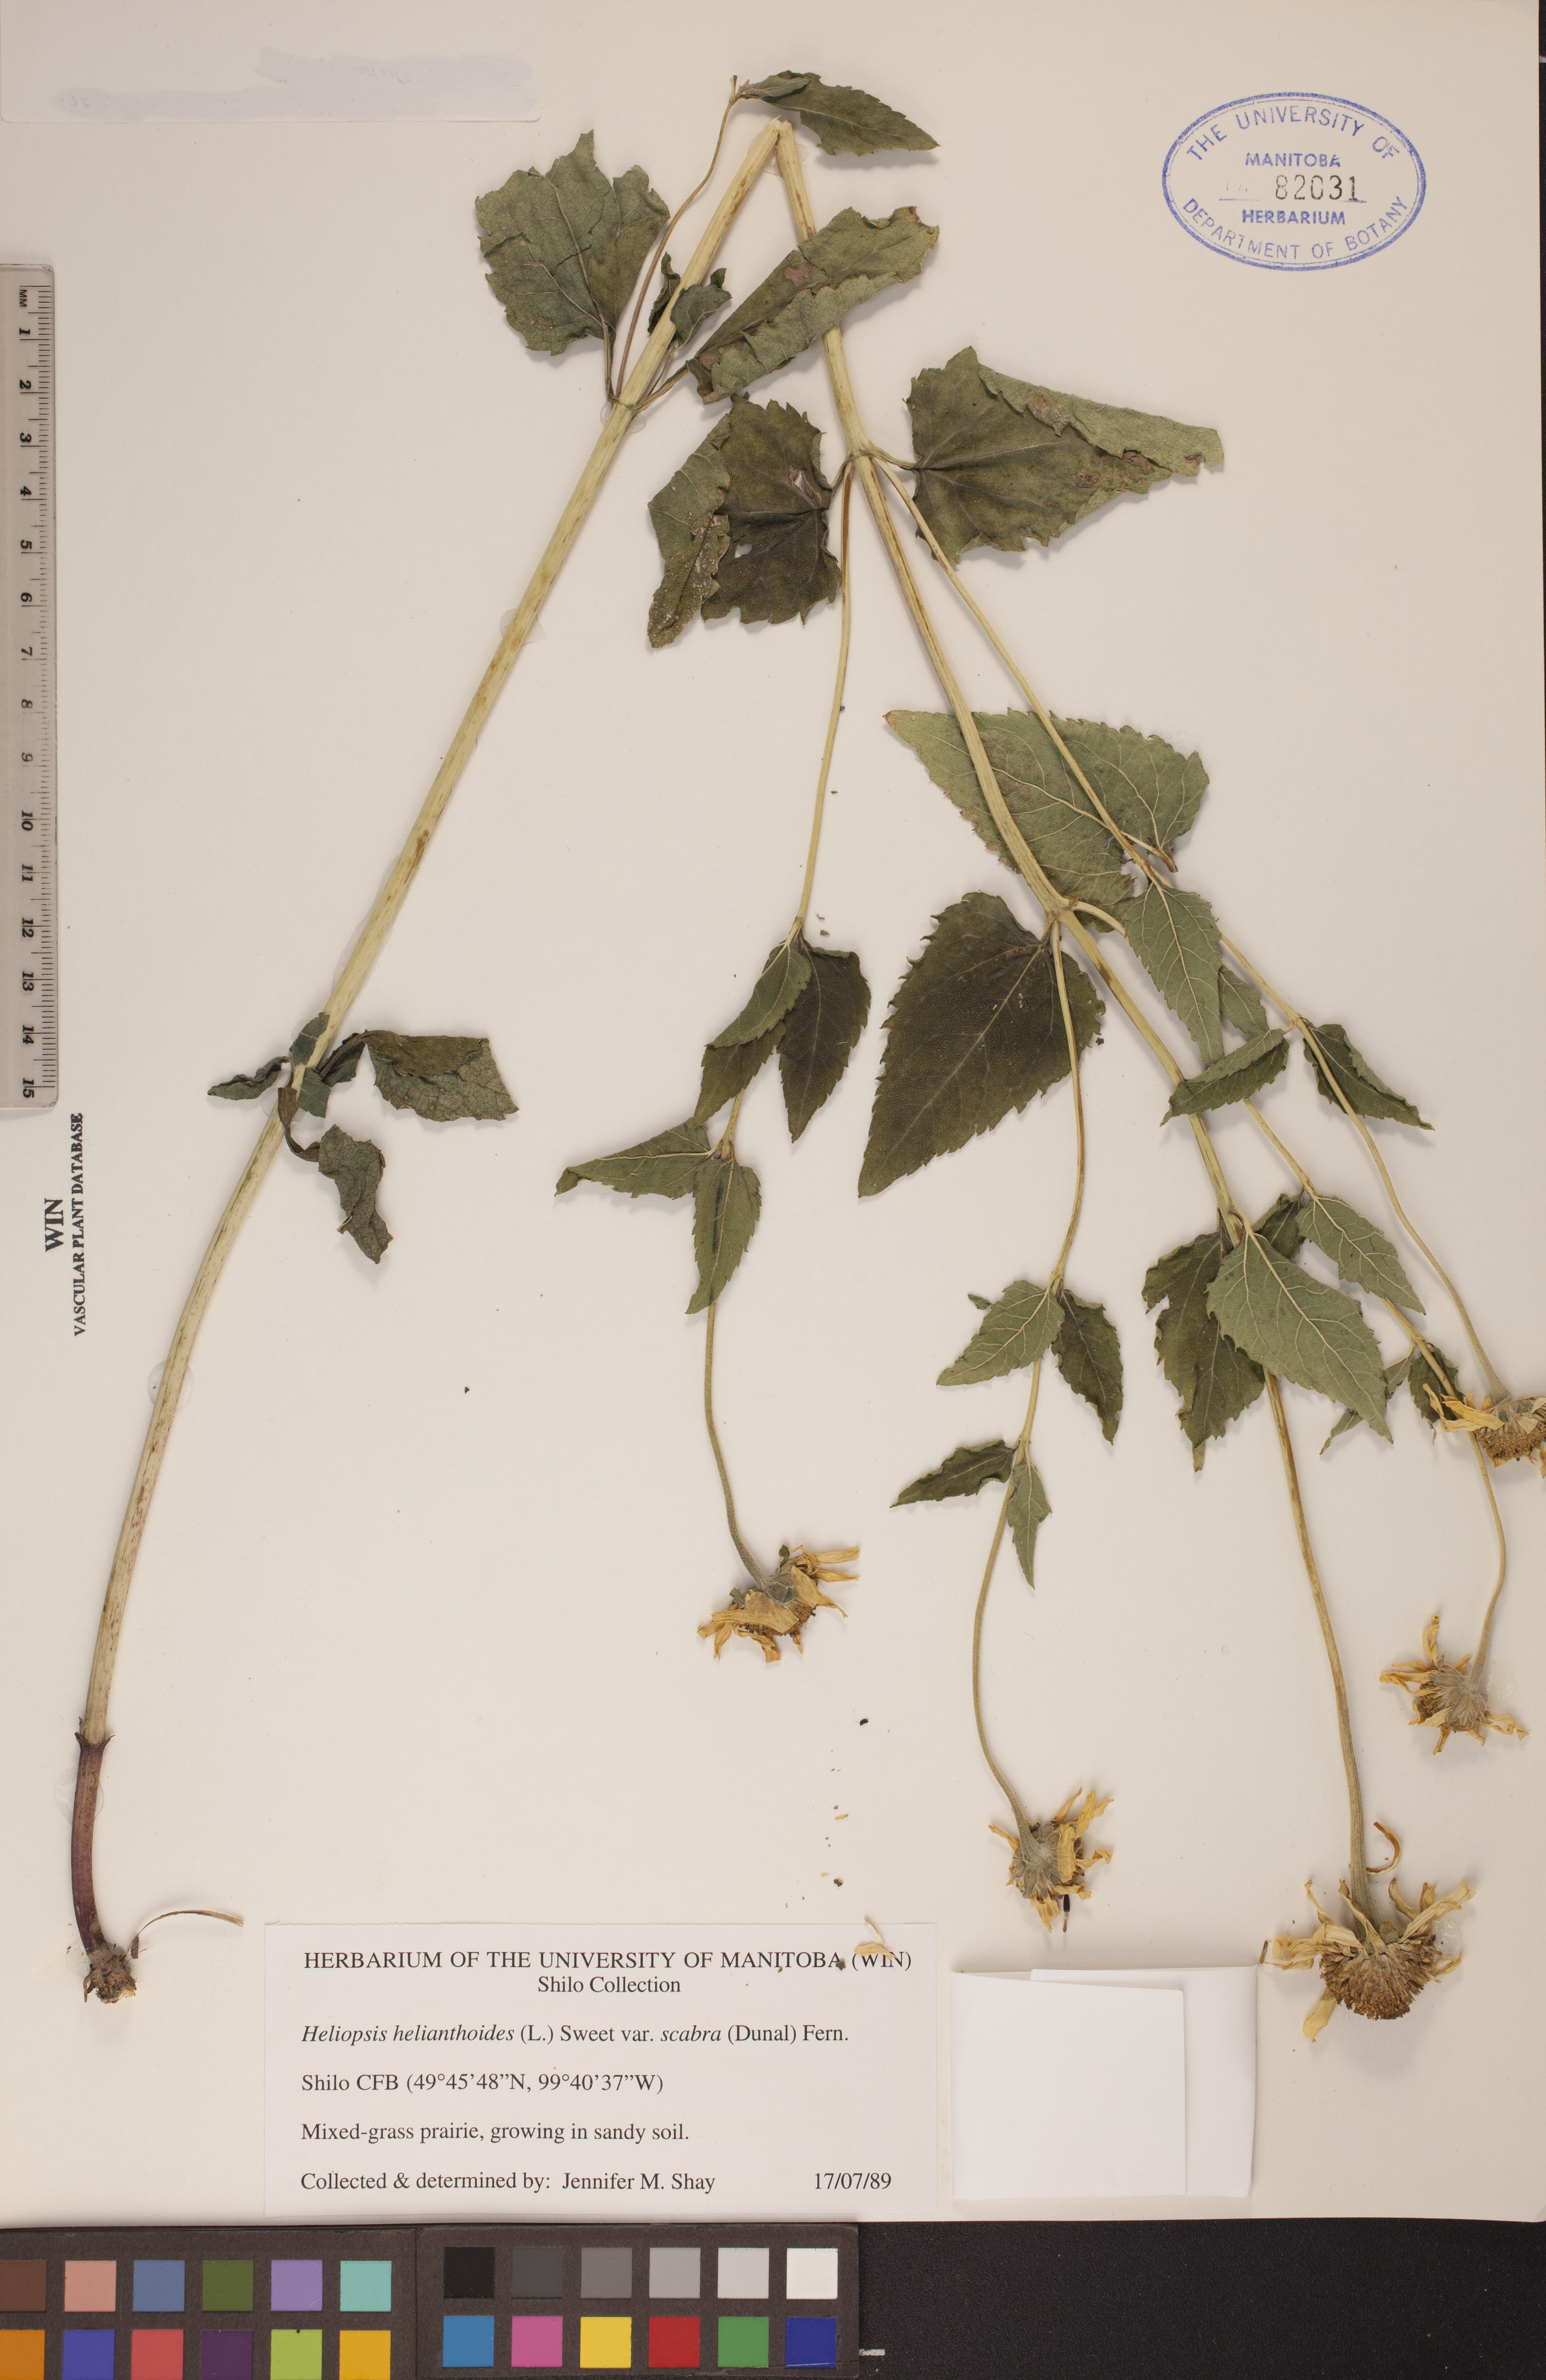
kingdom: Plantae
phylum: Tracheophyta
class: Magnoliopsida
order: Asterales
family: Asteraceae
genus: Heliopsis
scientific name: Heliopsis helianthoides
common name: False sunflower
